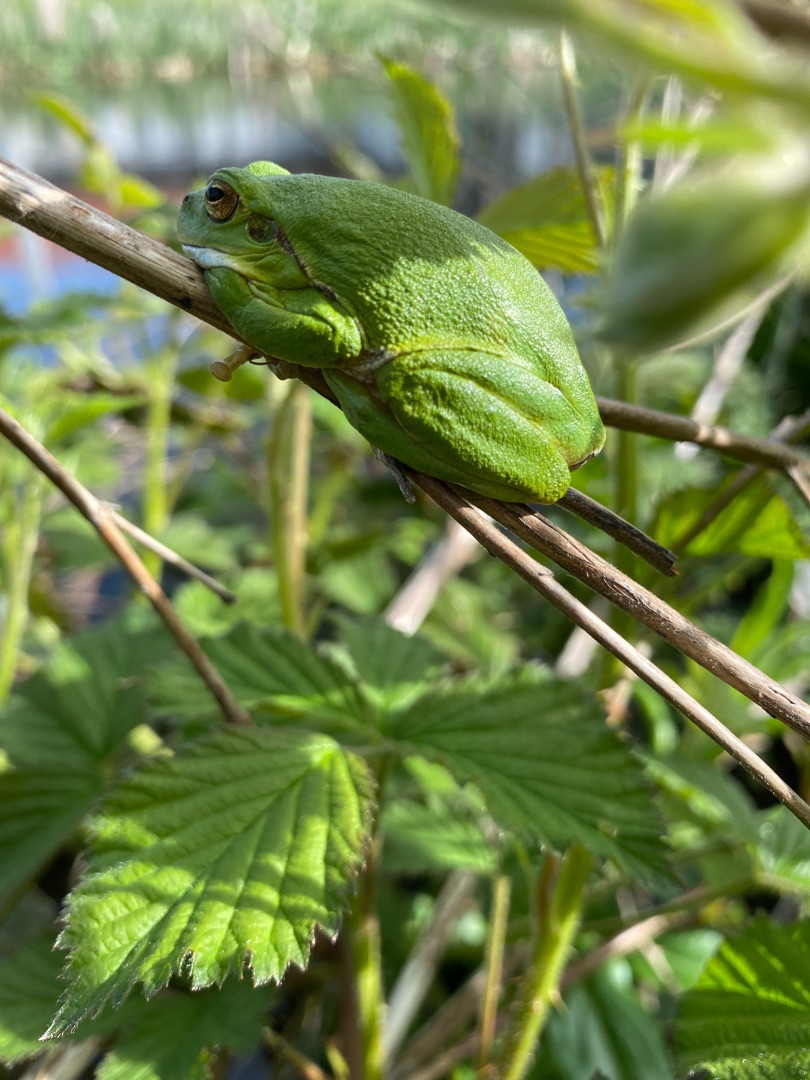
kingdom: Animalia
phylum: Chordata
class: Amphibia
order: Anura
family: Hylidae
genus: Hyla
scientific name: Hyla arborea
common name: Løvfrø
